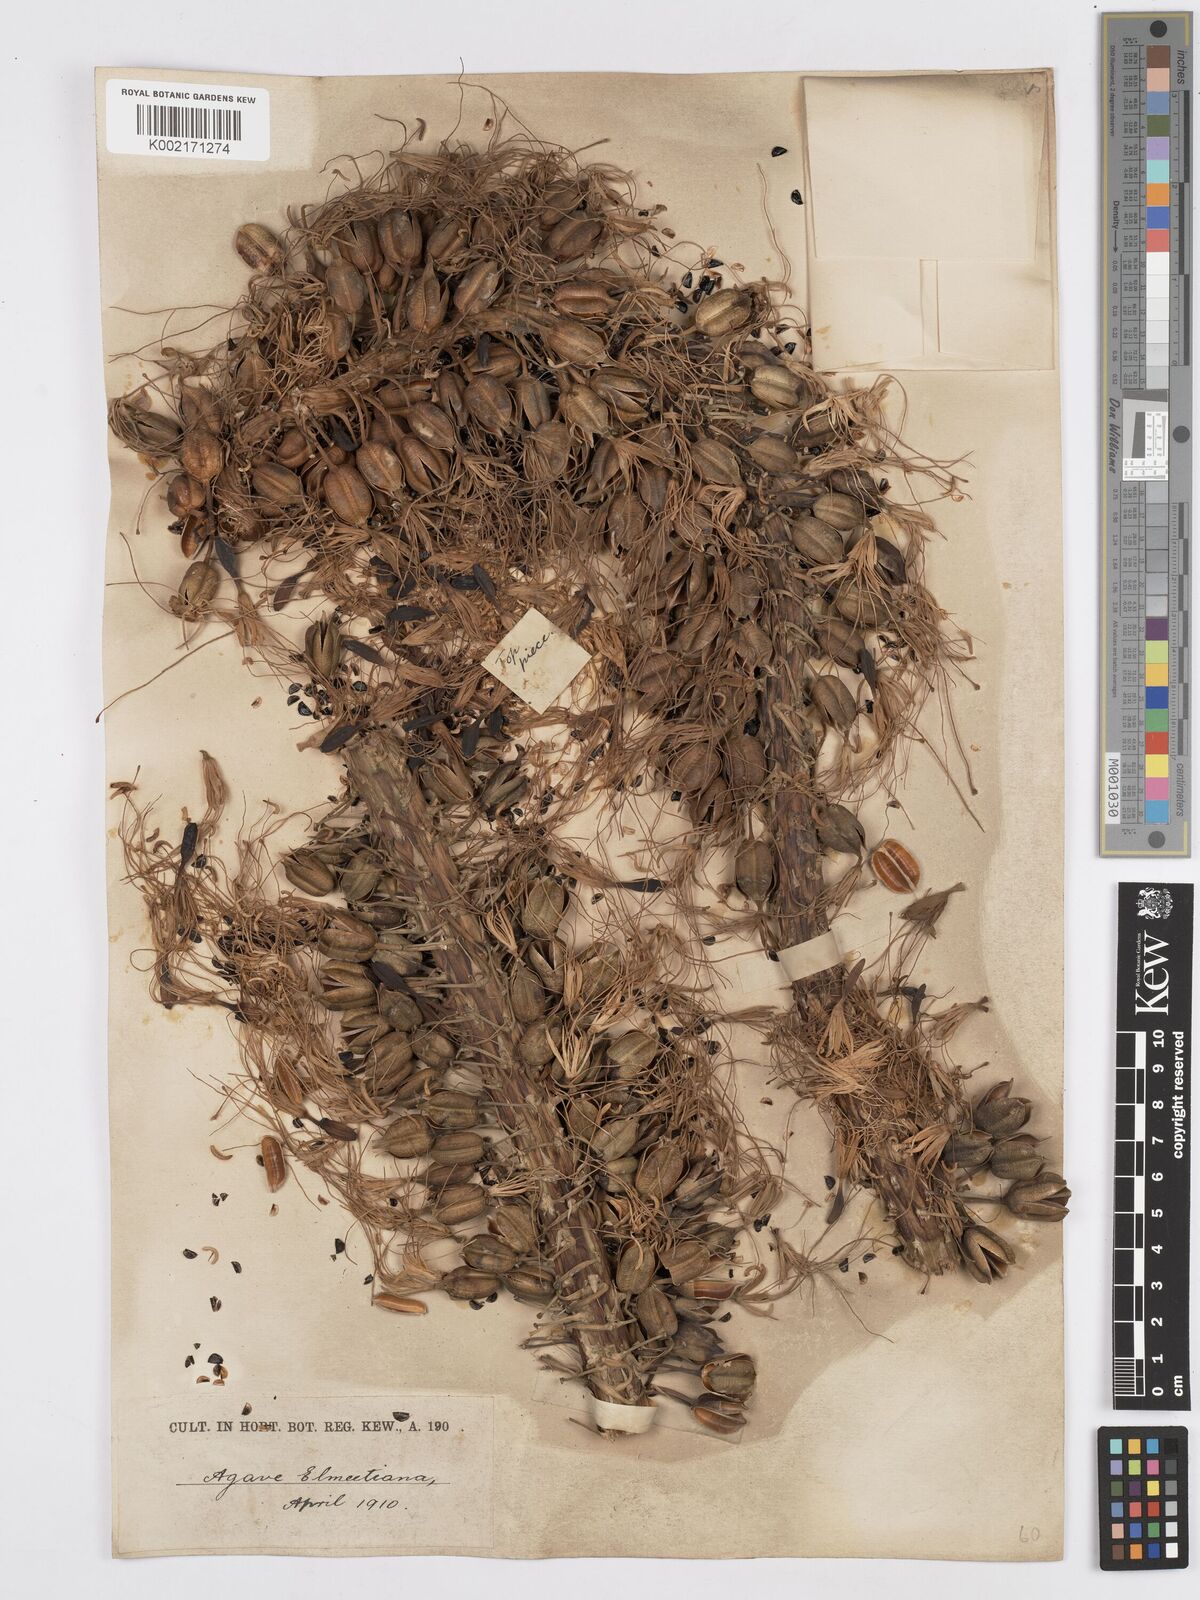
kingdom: Plantae
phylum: Tracheophyta
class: Liliopsida
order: Asparagales
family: Asparagaceae
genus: Agave
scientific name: Agave ellemeetiana
